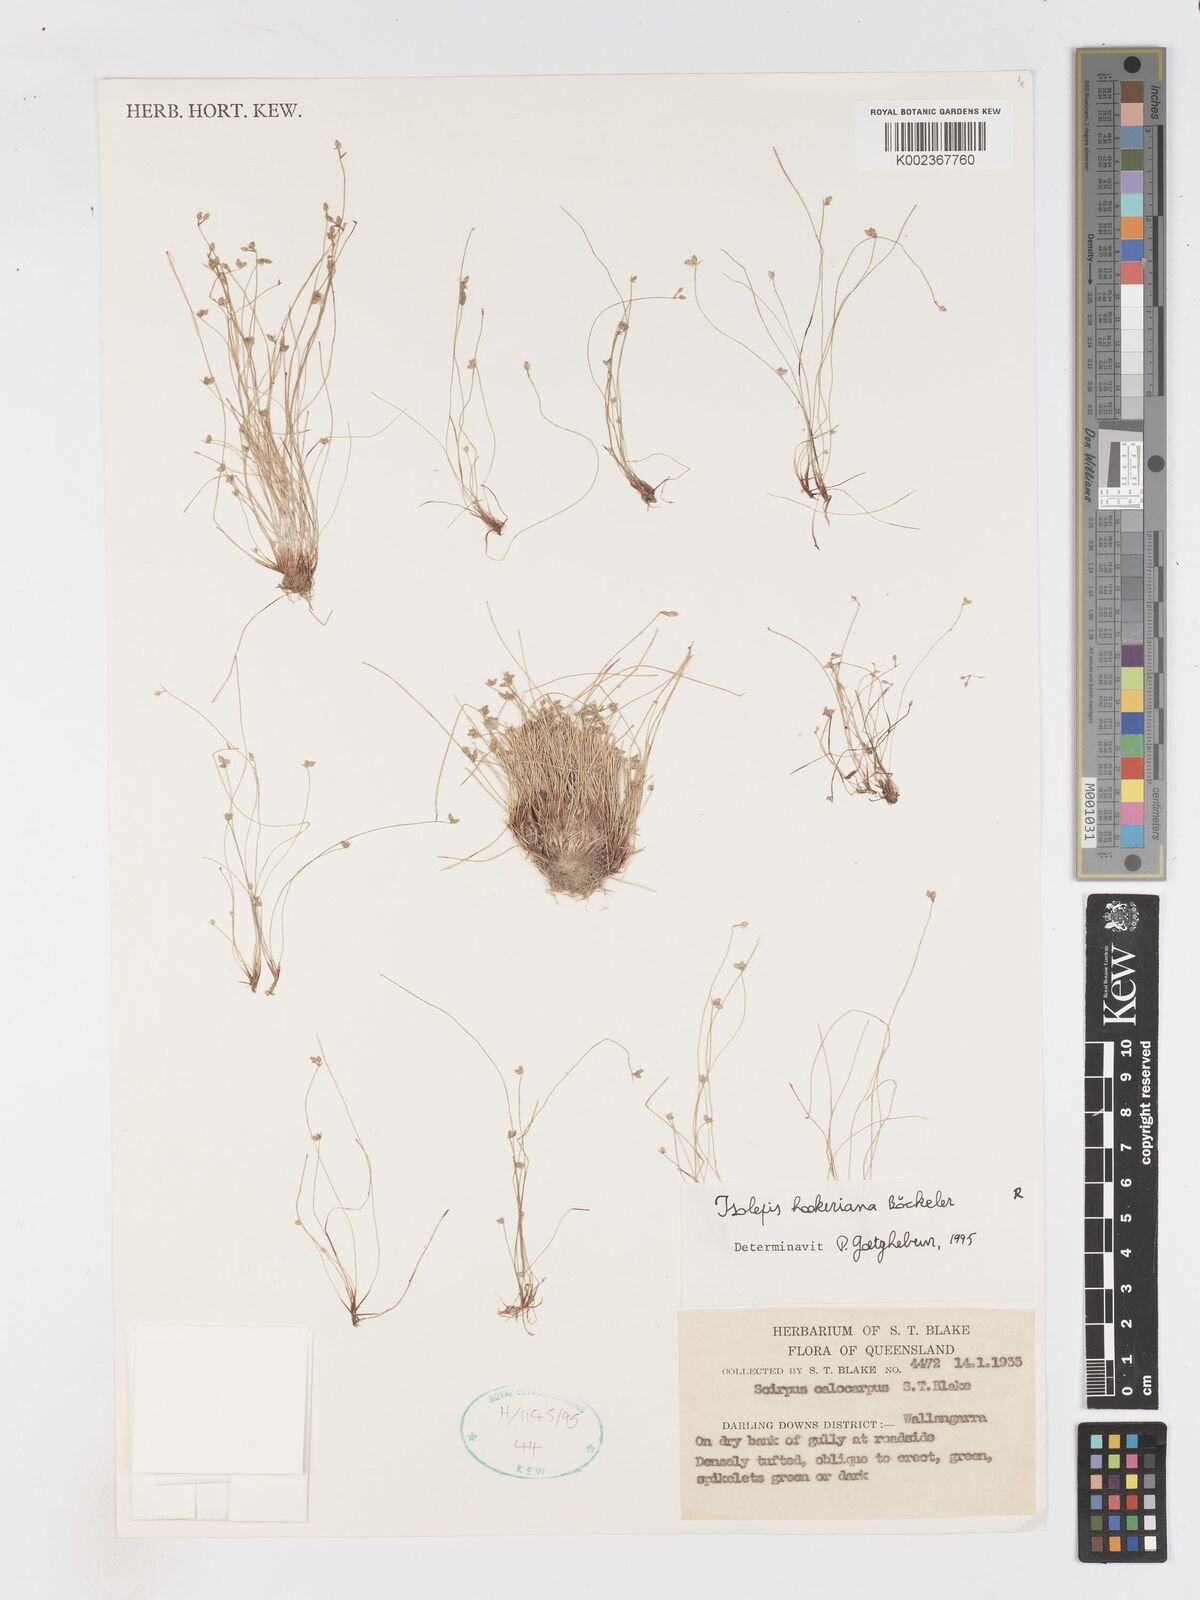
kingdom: Plantae
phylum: Tracheophyta
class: Liliopsida
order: Poales
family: Cyperaceae
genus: Isolepis
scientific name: Isolepis multicaulis
